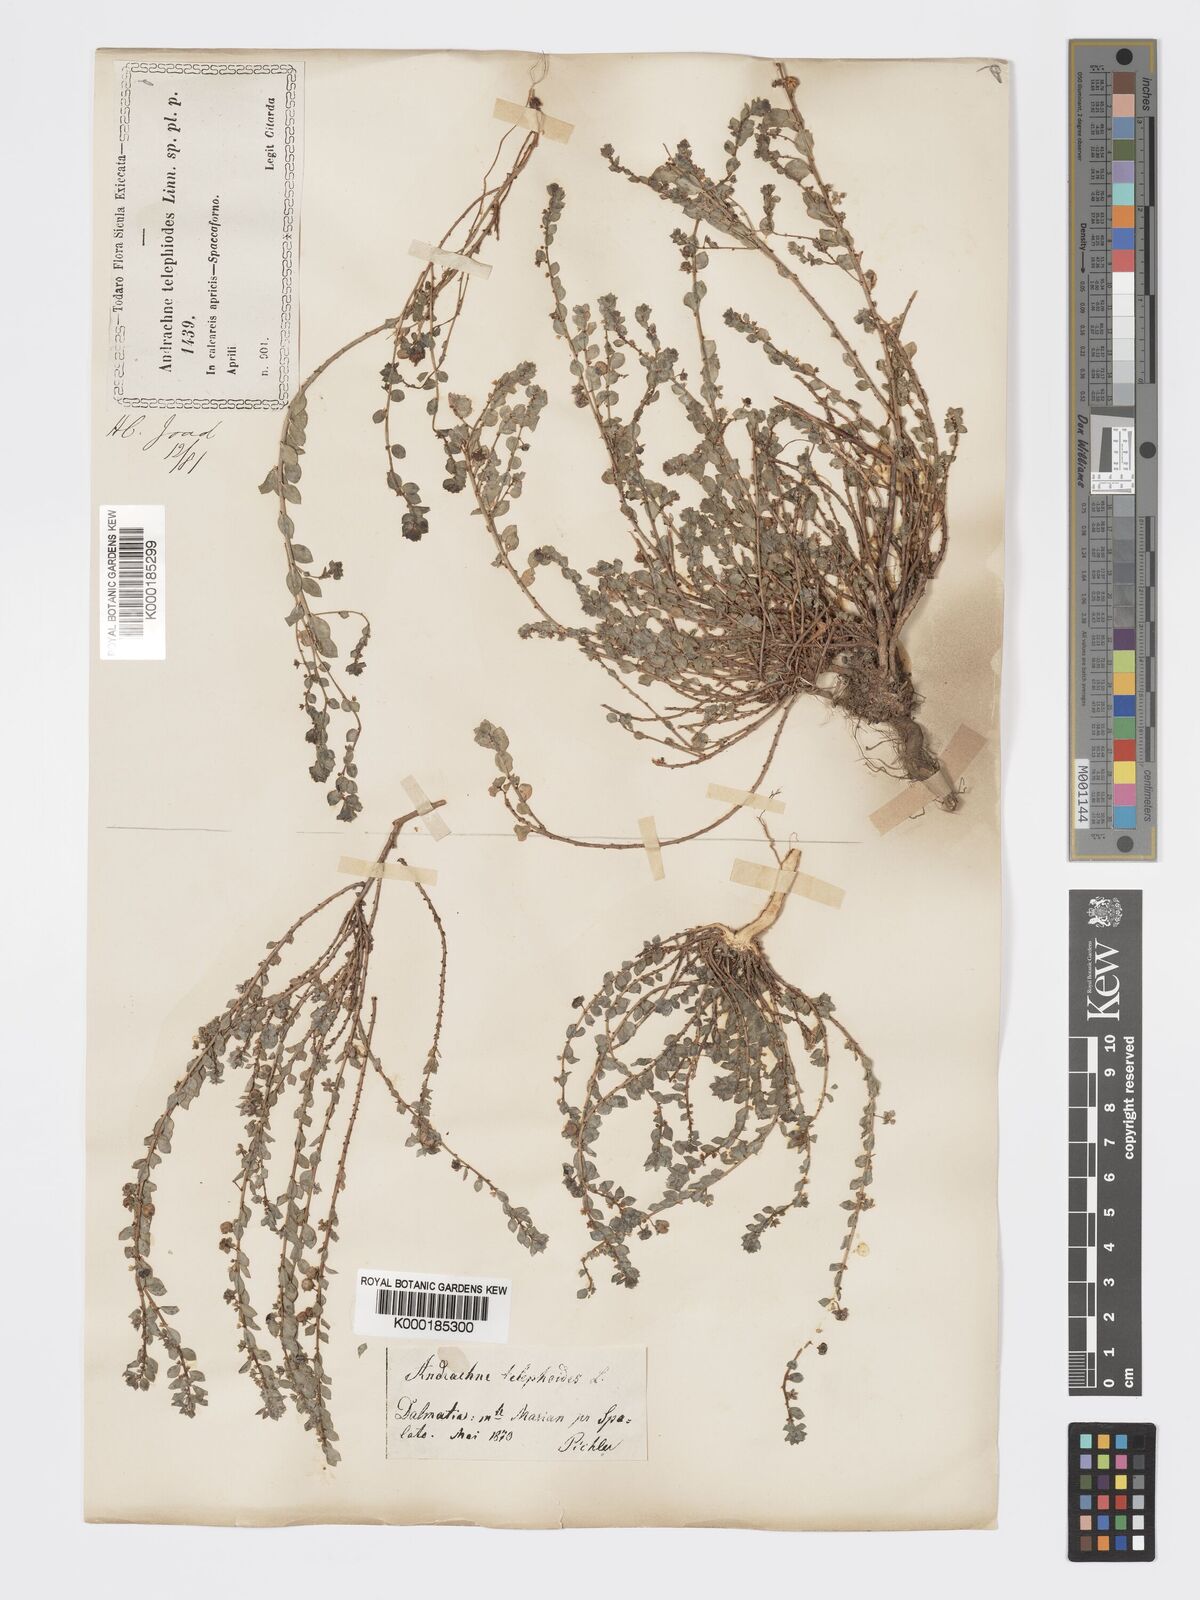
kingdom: Plantae
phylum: Tracheophyta
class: Magnoliopsida
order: Malpighiales
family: Phyllanthaceae
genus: Andrachne
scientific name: Andrachne telephioides
